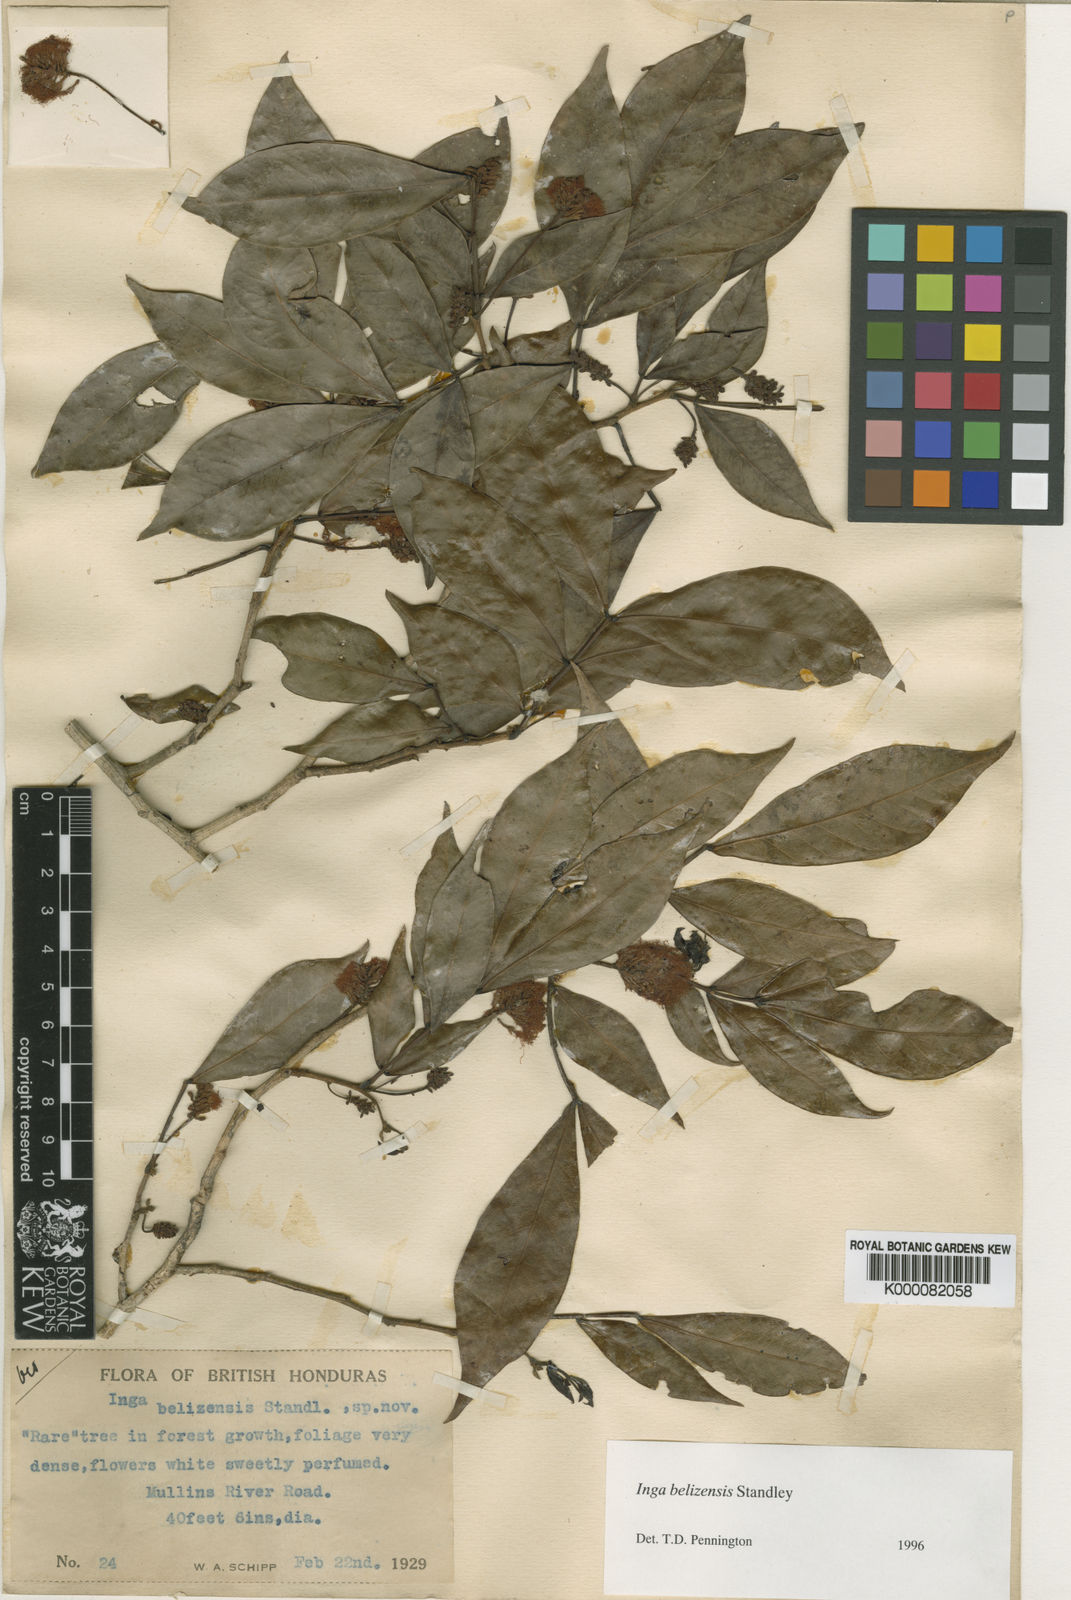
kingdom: Plantae
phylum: Tracheophyta
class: Magnoliopsida
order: Fabales
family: Fabaceae
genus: Inga
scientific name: Inga belizensis
